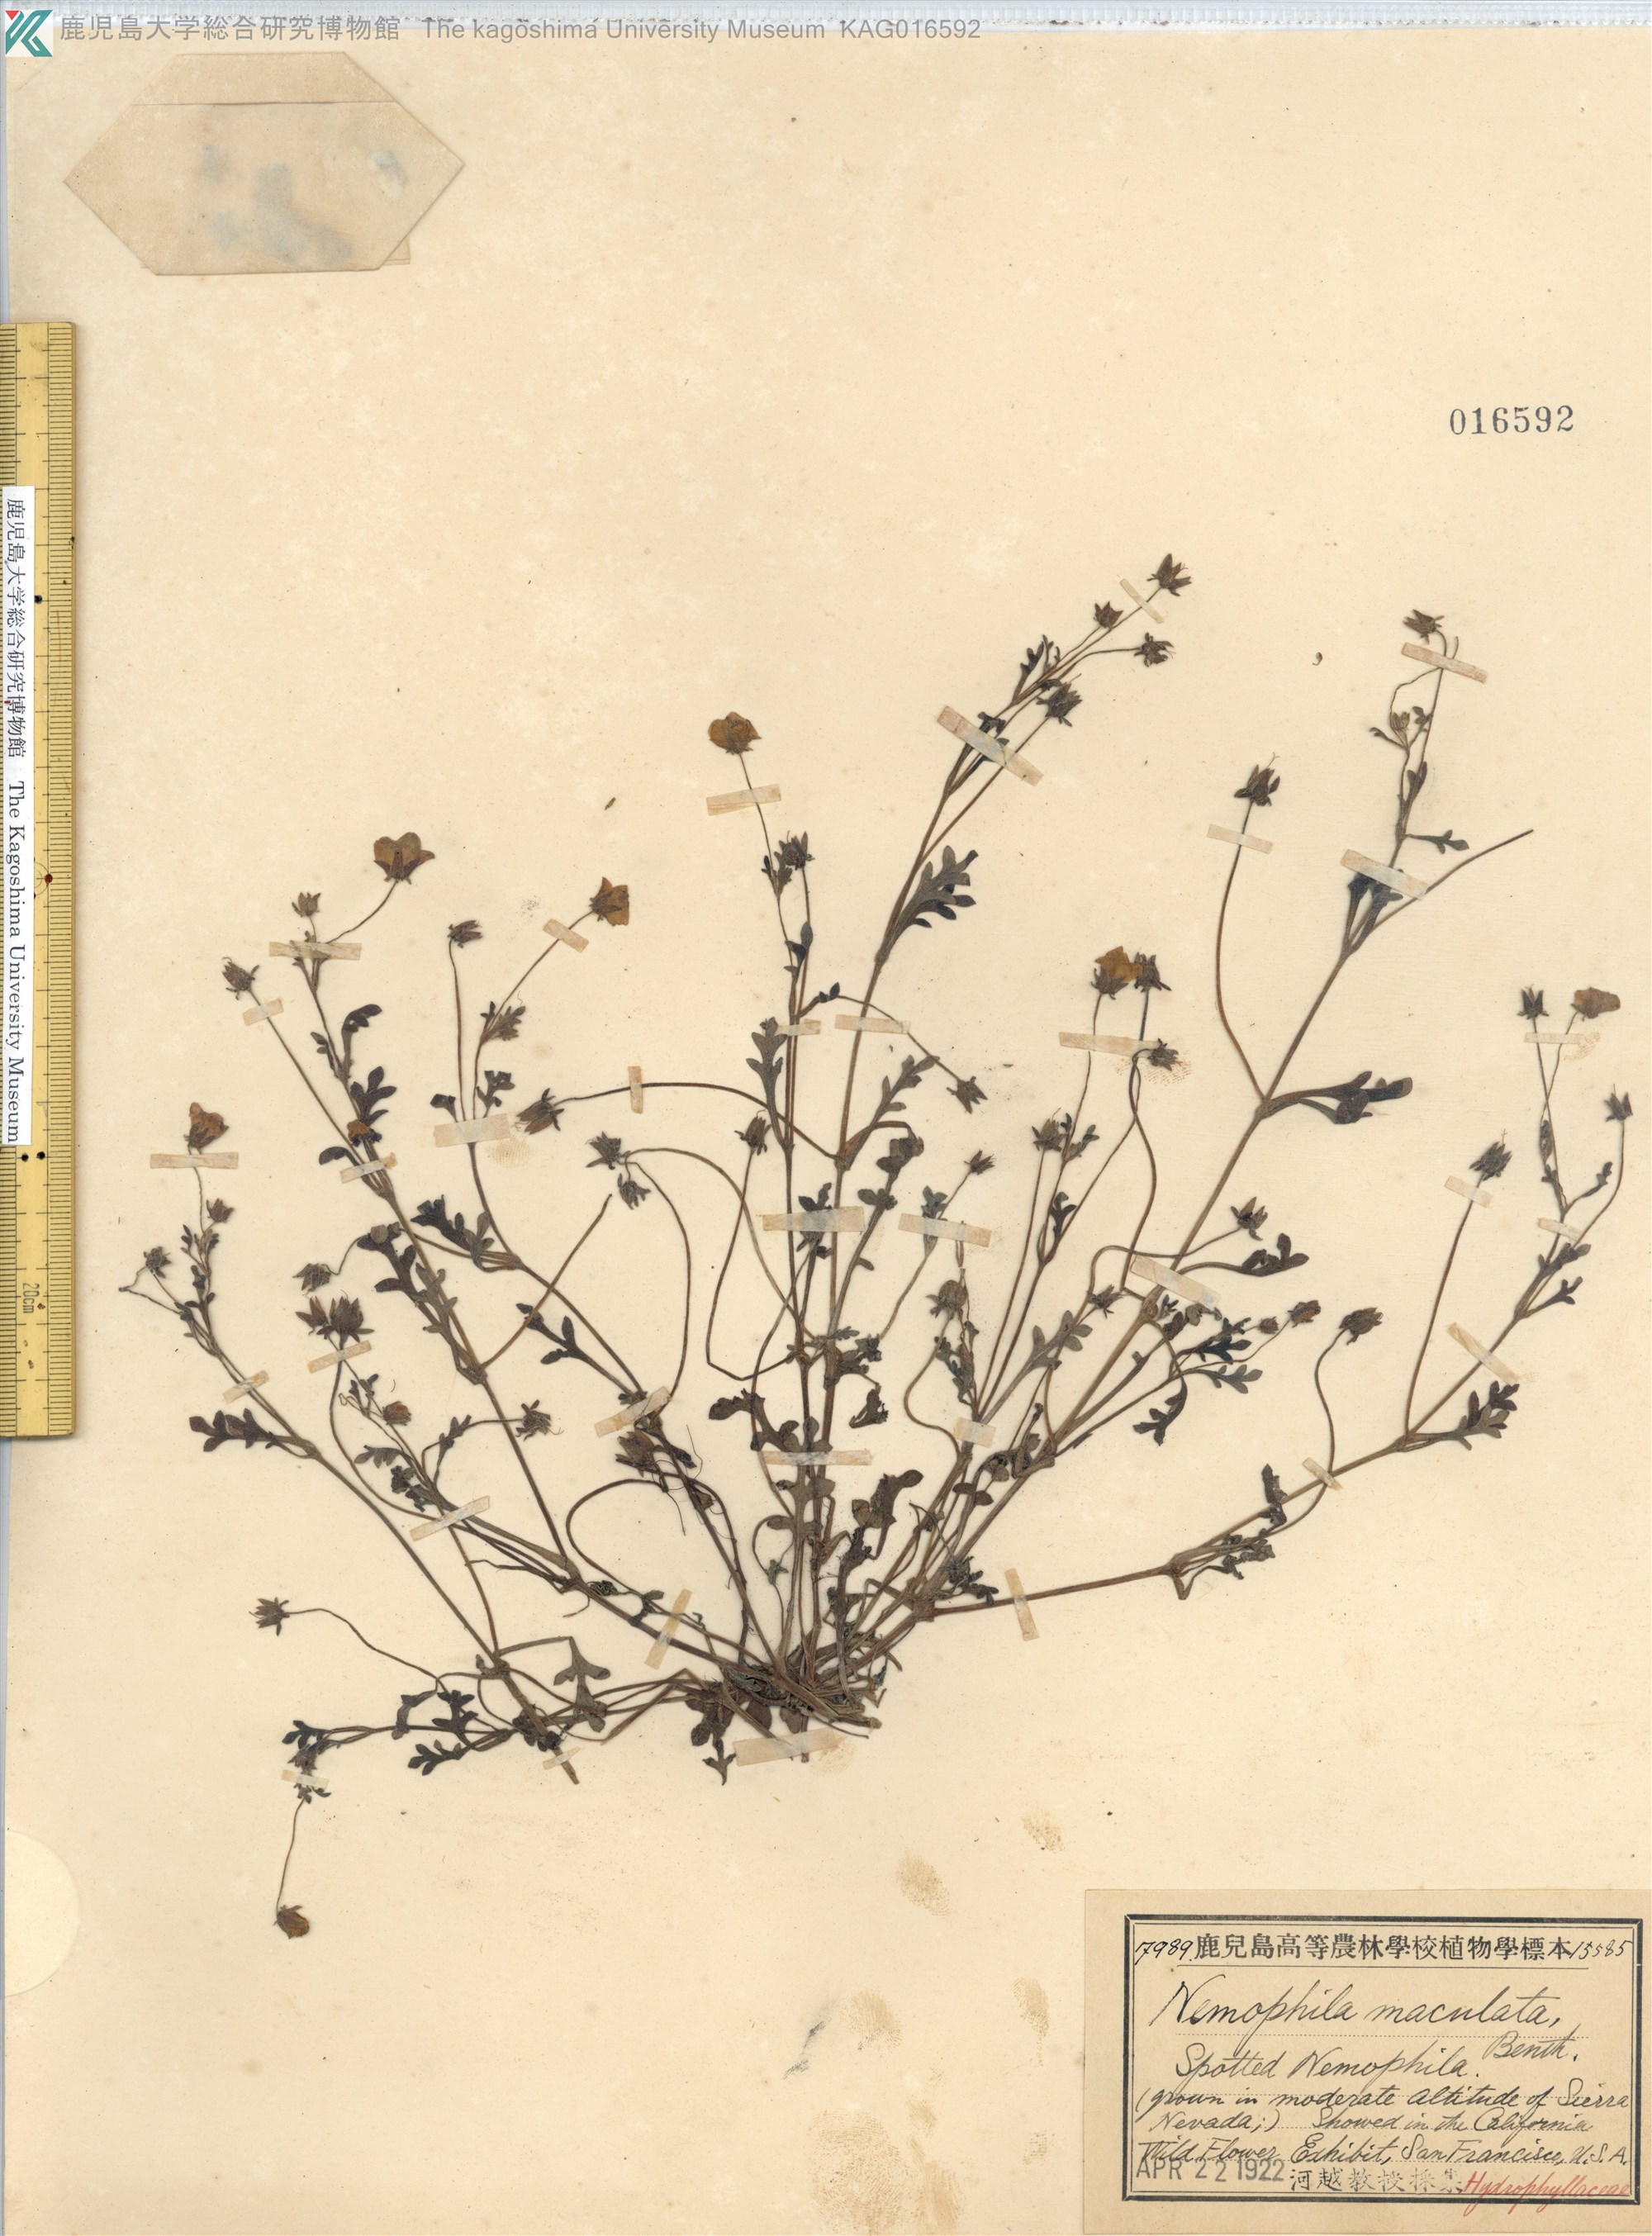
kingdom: Plantae
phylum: Tracheophyta
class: Magnoliopsida
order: Boraginales
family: Hydrophyllaceae
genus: Nemophila
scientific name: Nemophila maculata
